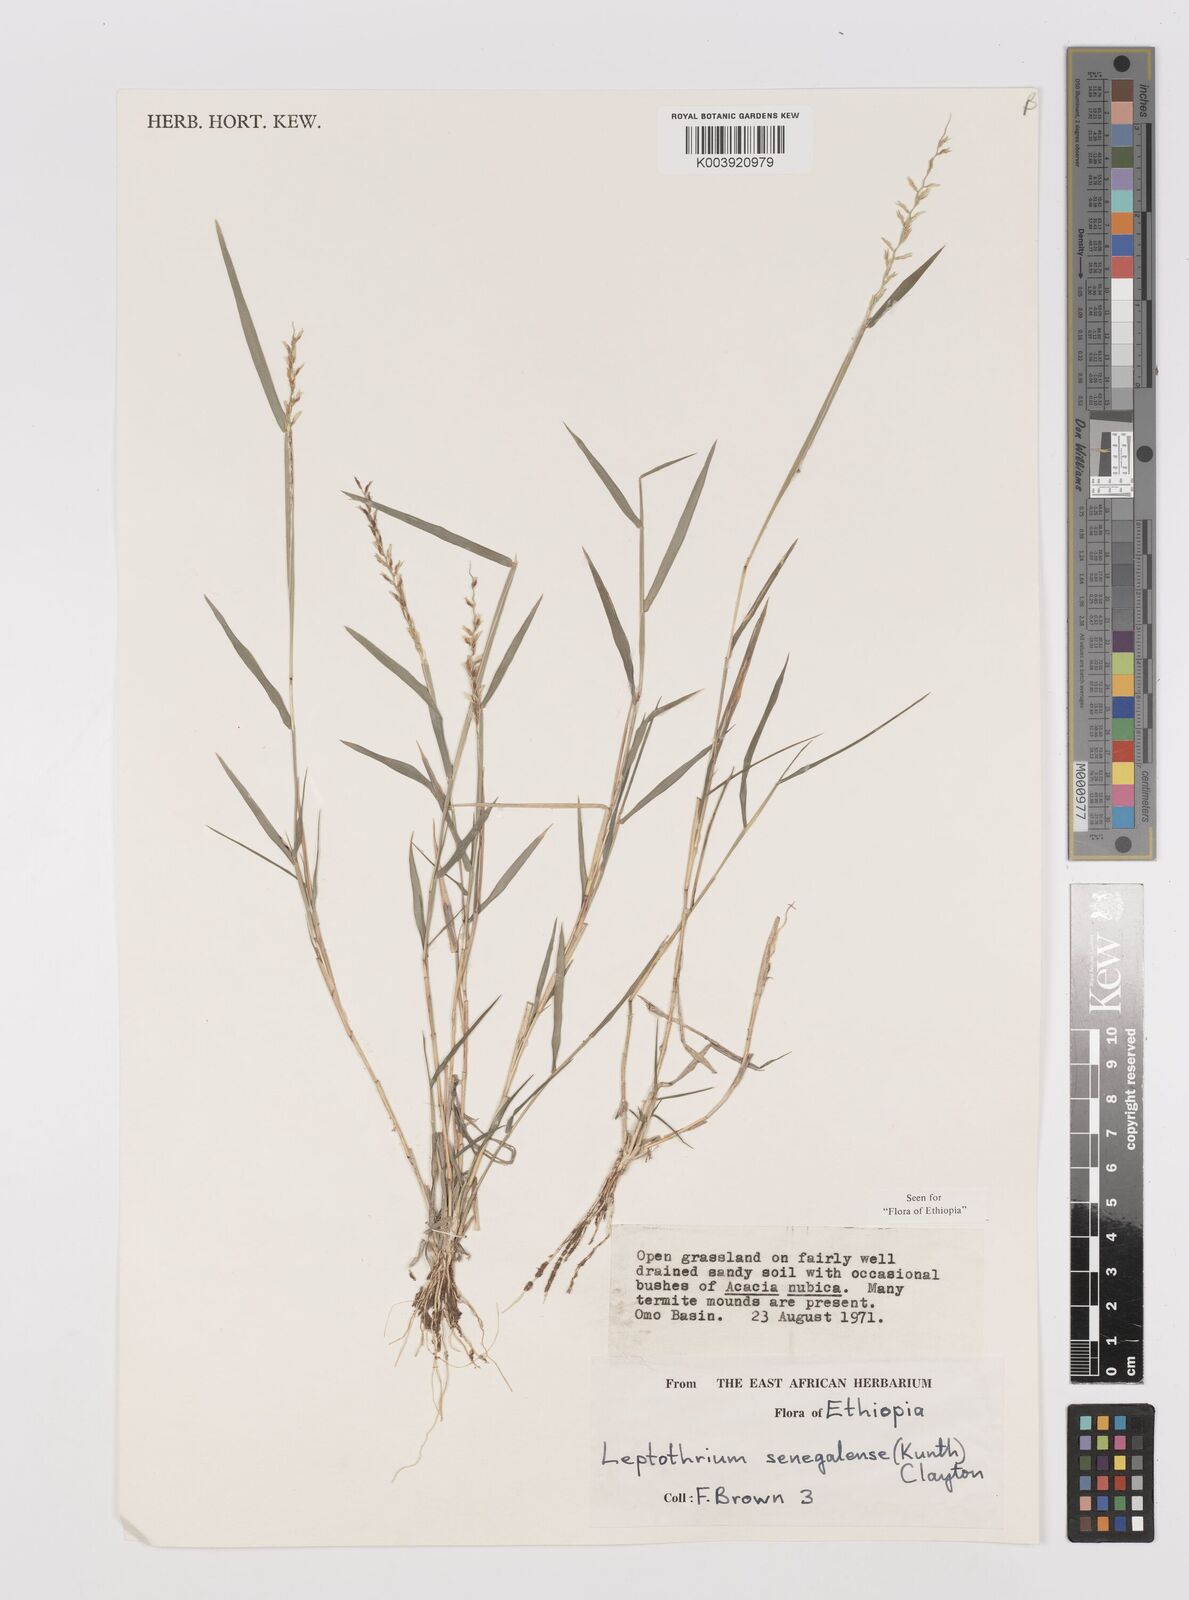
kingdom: Plantae
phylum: Tracheophyta
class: Liliopsida
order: Poales
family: Poaceae
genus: Leptothrium
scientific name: Leptothrium senegalense
